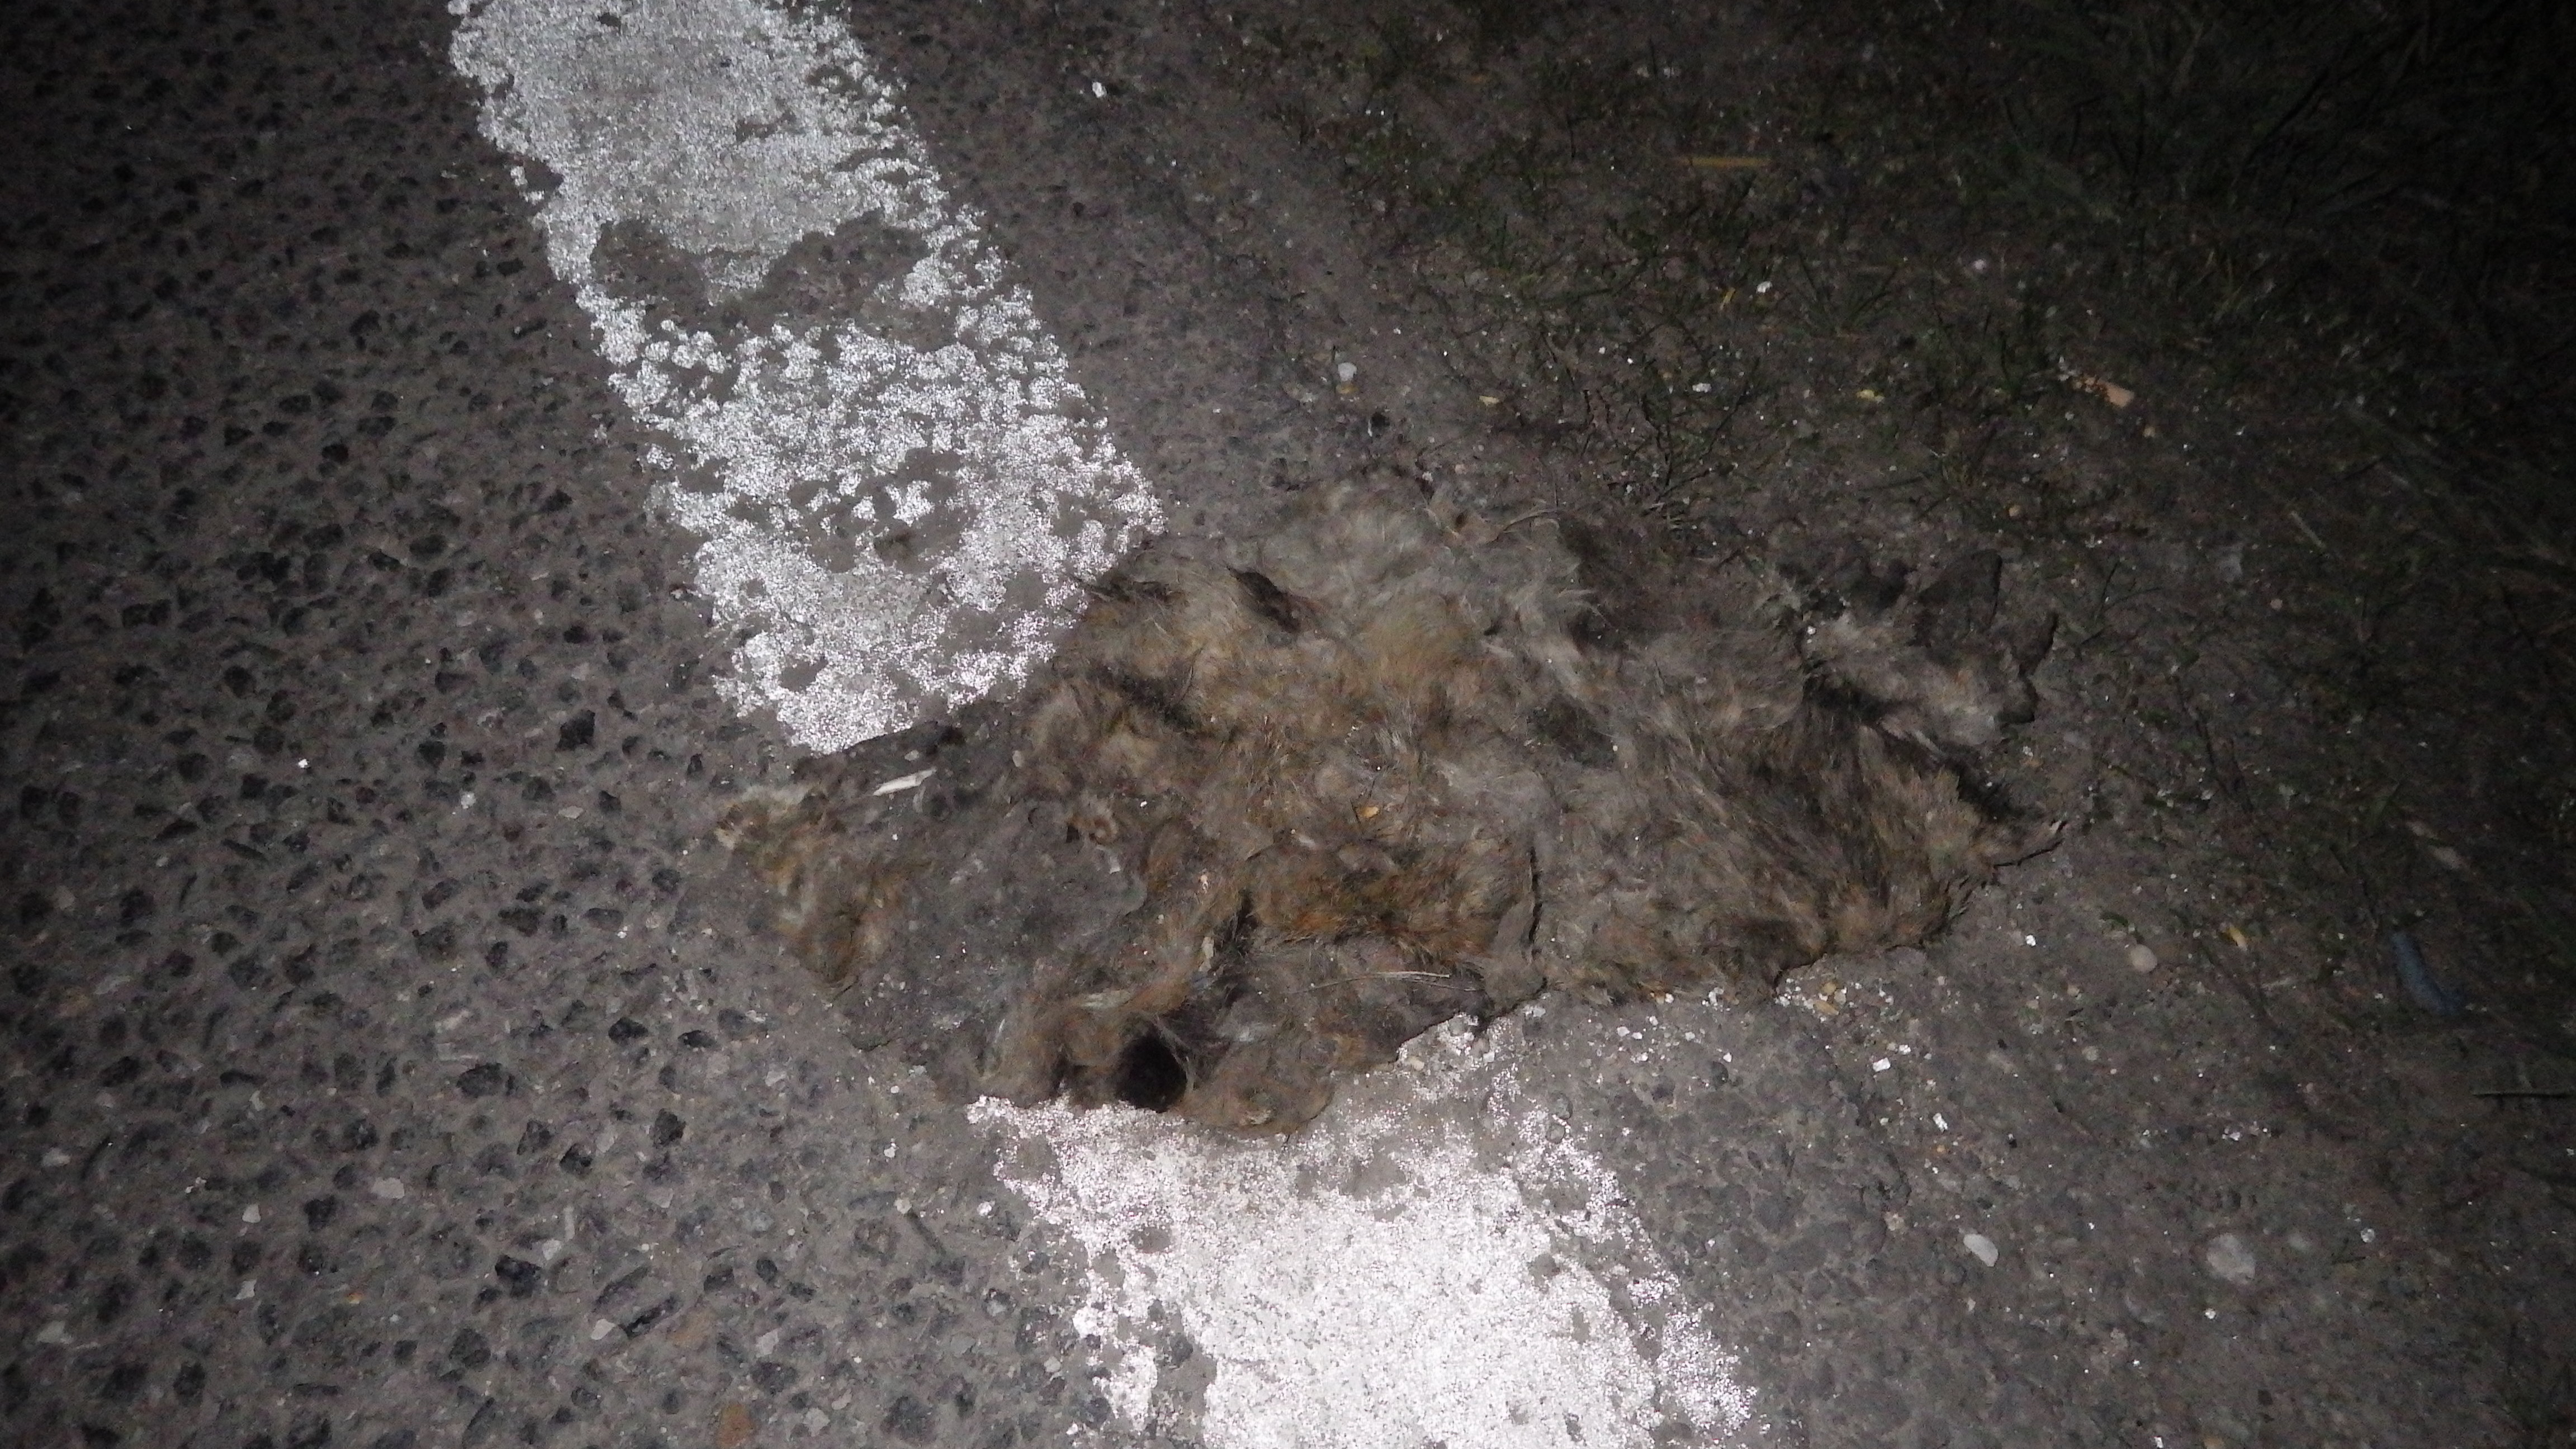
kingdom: Animalia
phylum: Chordata
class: Mammalia
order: Lagomorpha
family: Leporidae
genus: Oryctolagus
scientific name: Oryctolagus cuniculus
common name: European rabbit
